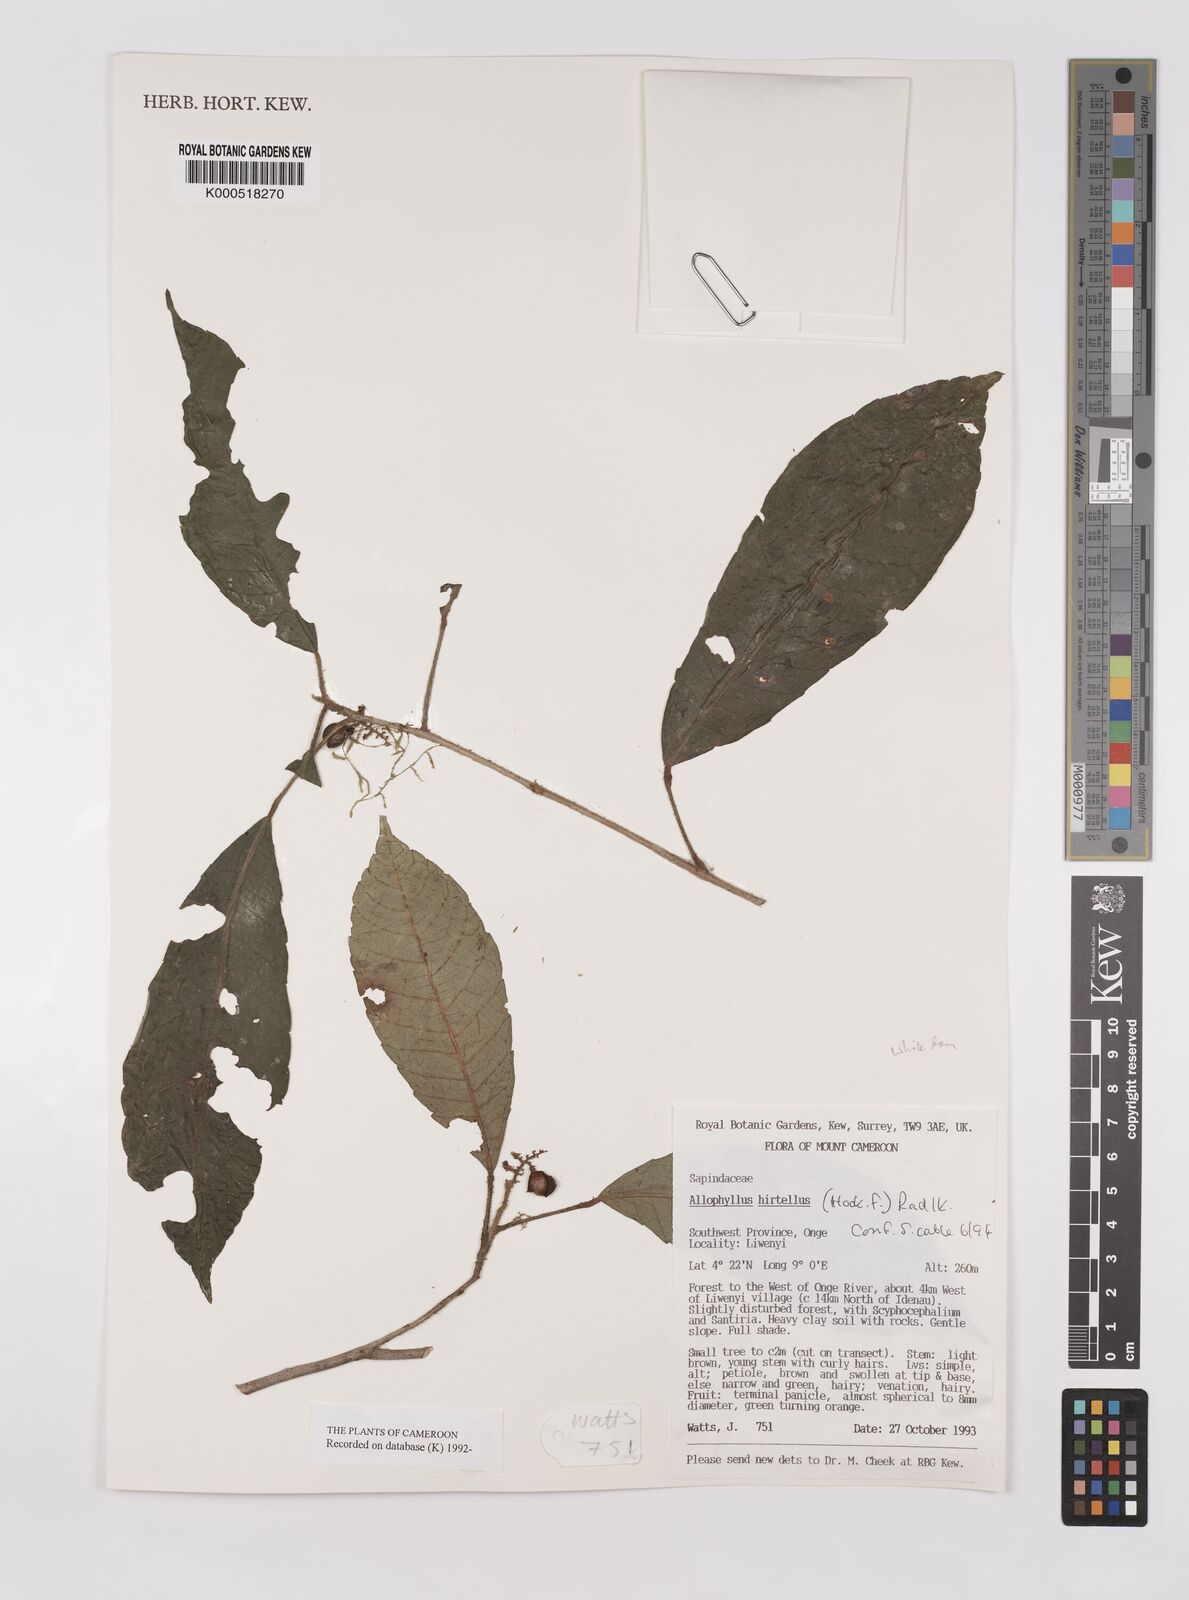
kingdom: Plantae
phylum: Tracheophyta
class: Magnoliopsida
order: Sapindales
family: Sapindaceae
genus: Allophylus
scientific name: Allophylus hirtellus
